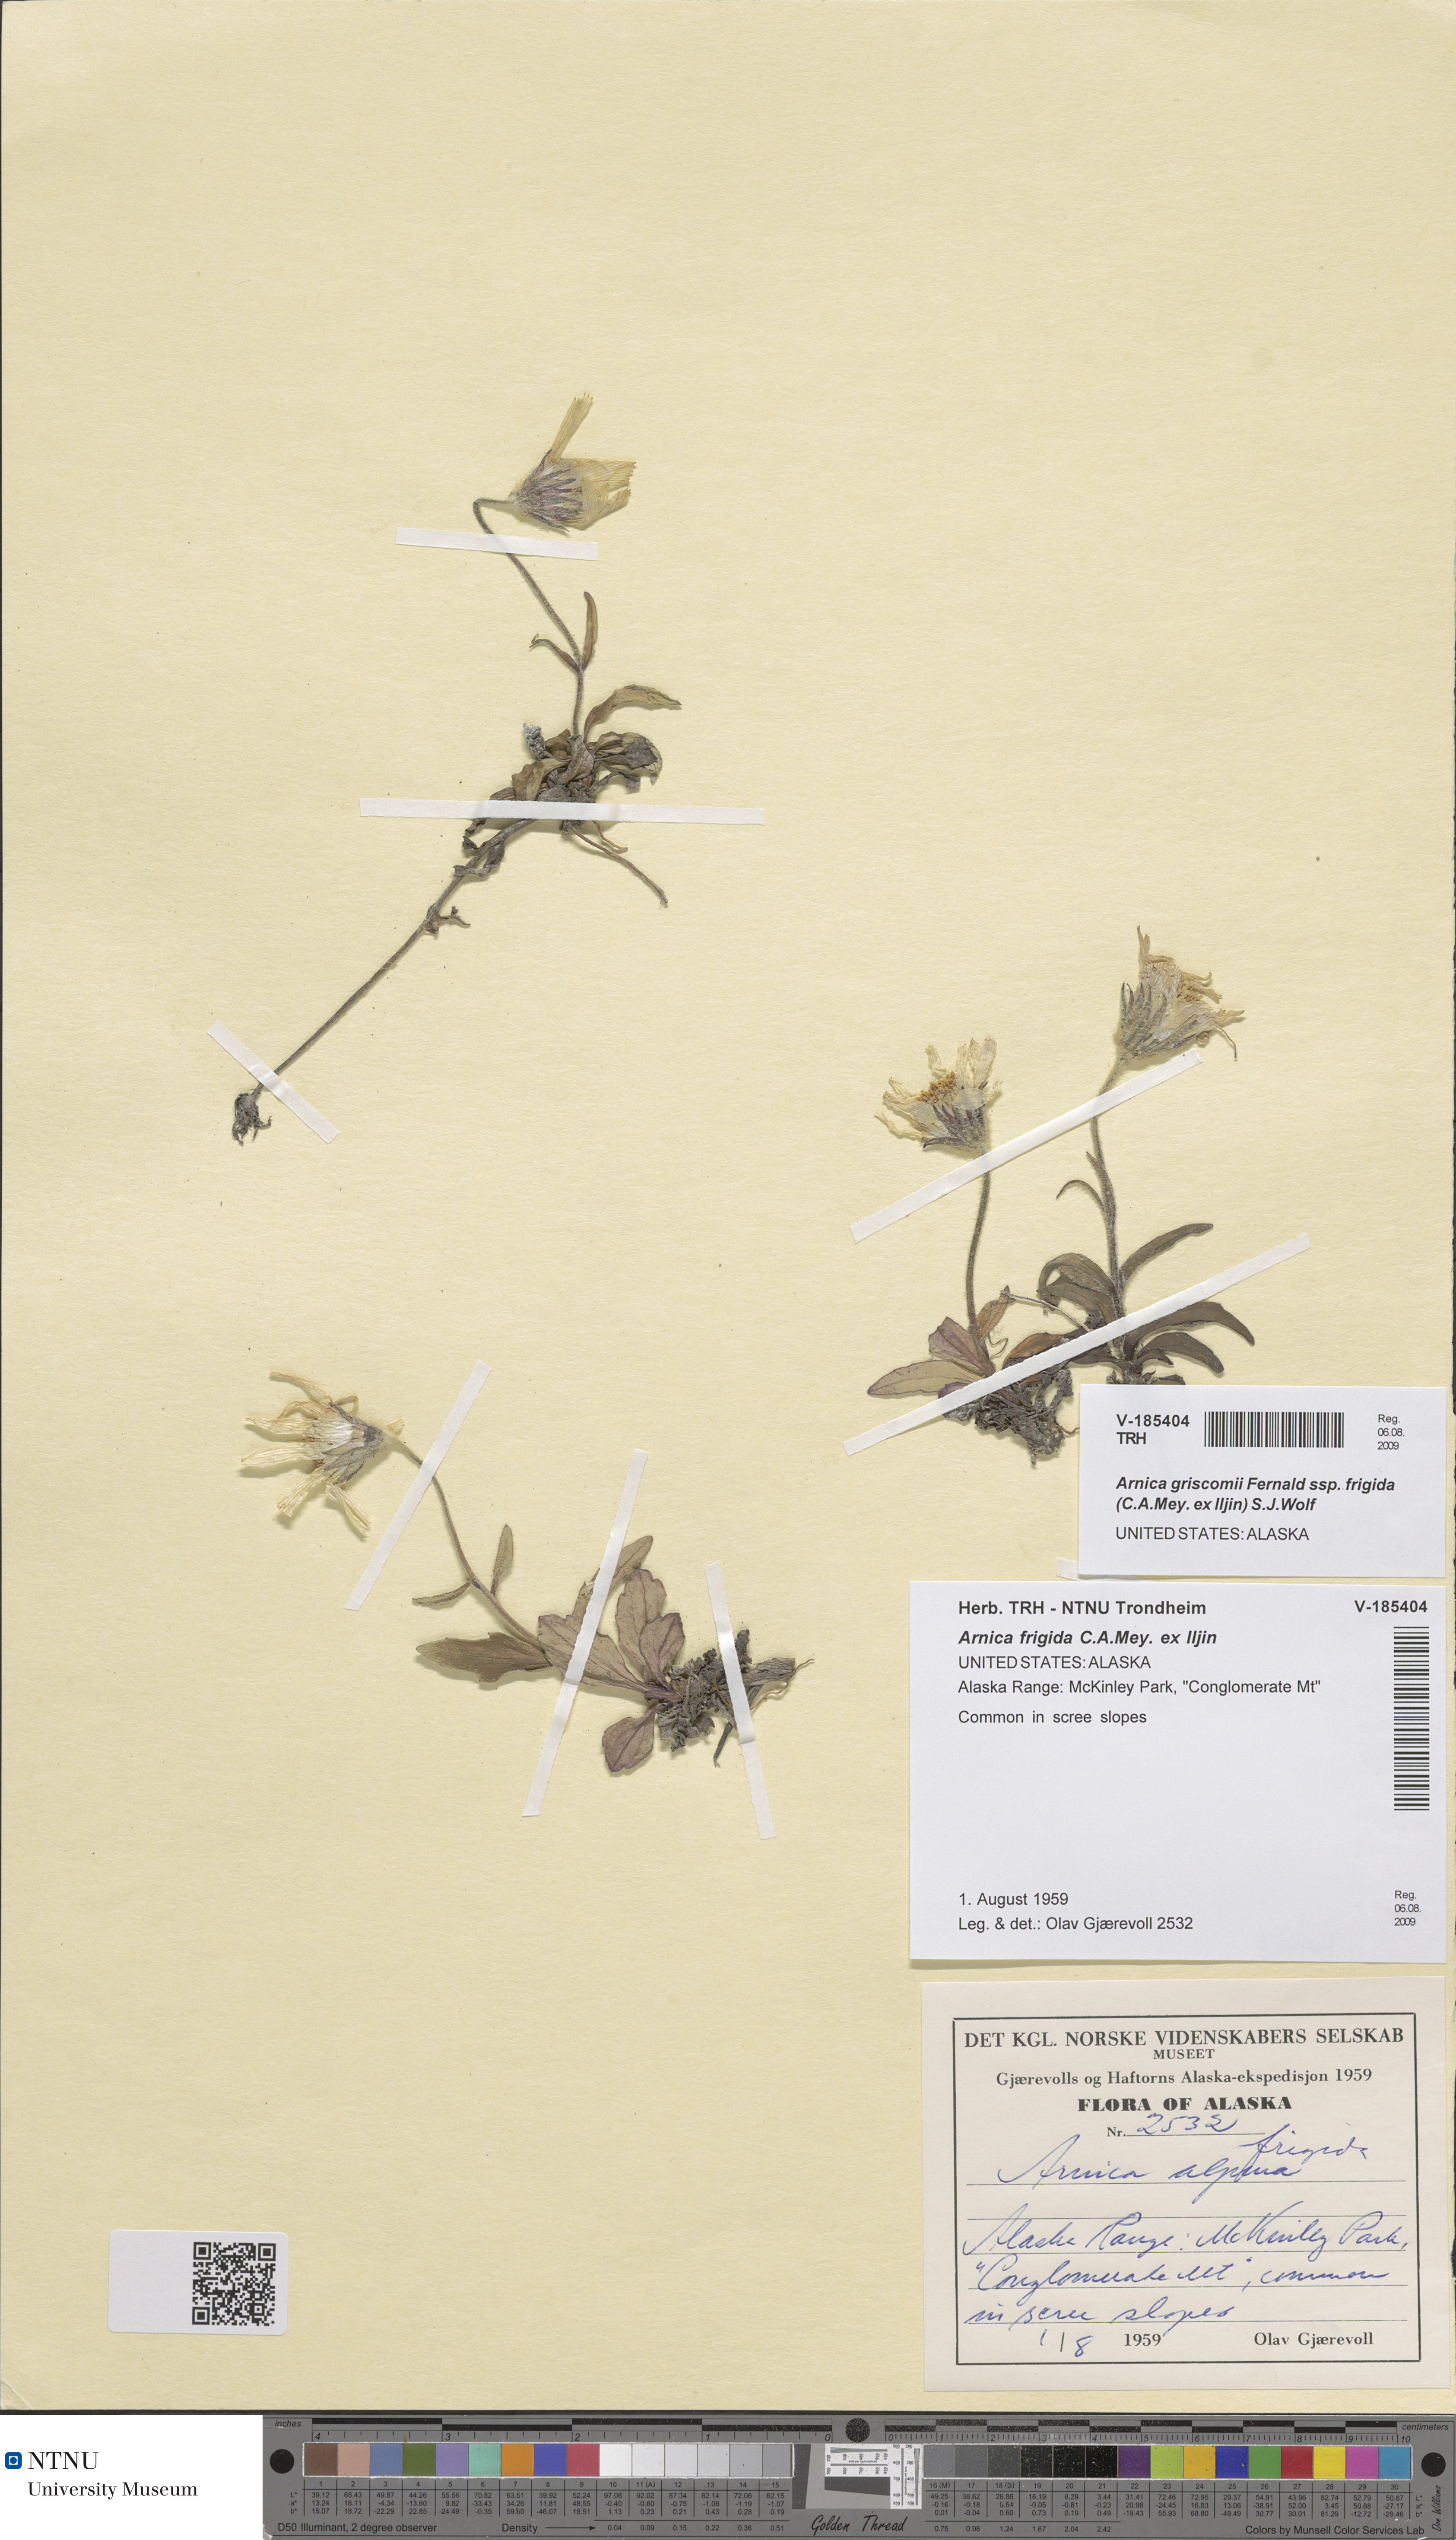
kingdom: Plantae
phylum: Tracheophyta
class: Magnoliopsida
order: Asterales
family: Asteraceae
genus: Arnica
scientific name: Arnica griscomii
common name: Snow arnica
